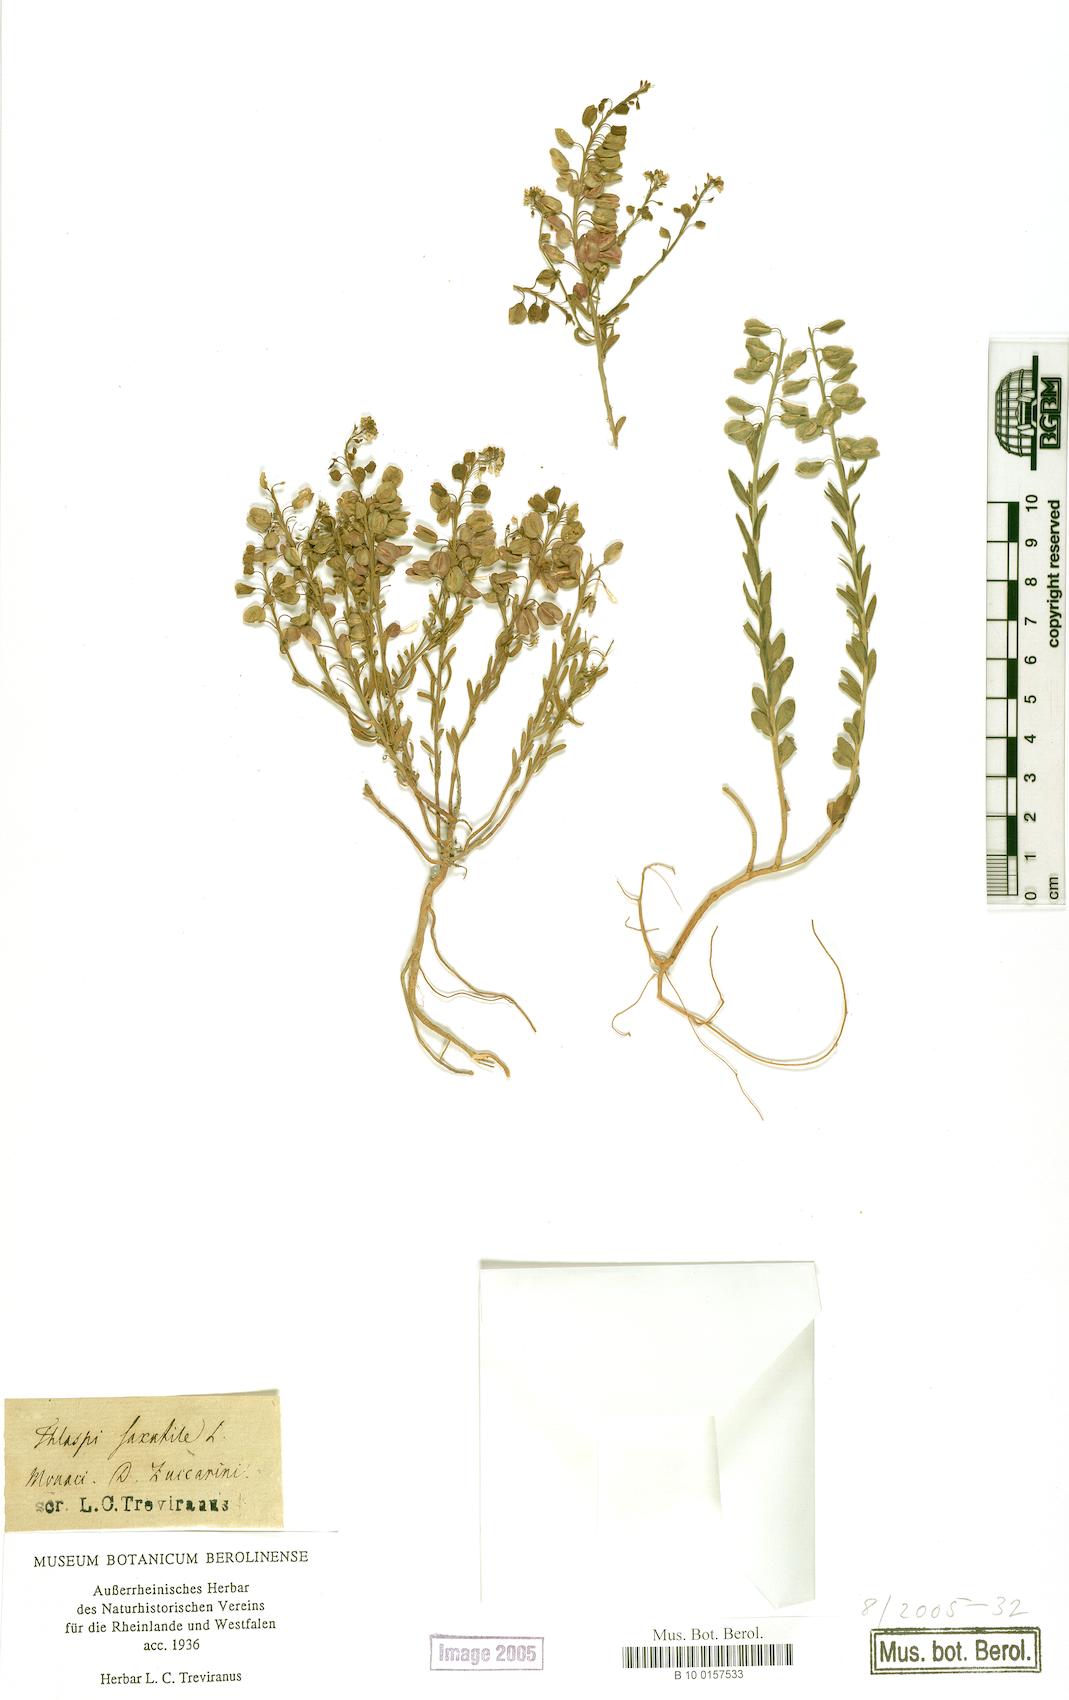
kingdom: Plantae
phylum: Tracheophyta
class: Magnoliopsida
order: Brassicales
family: Brassicaceae
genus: Aethionema
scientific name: Aethionema saxatile
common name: Burnt candytuft
